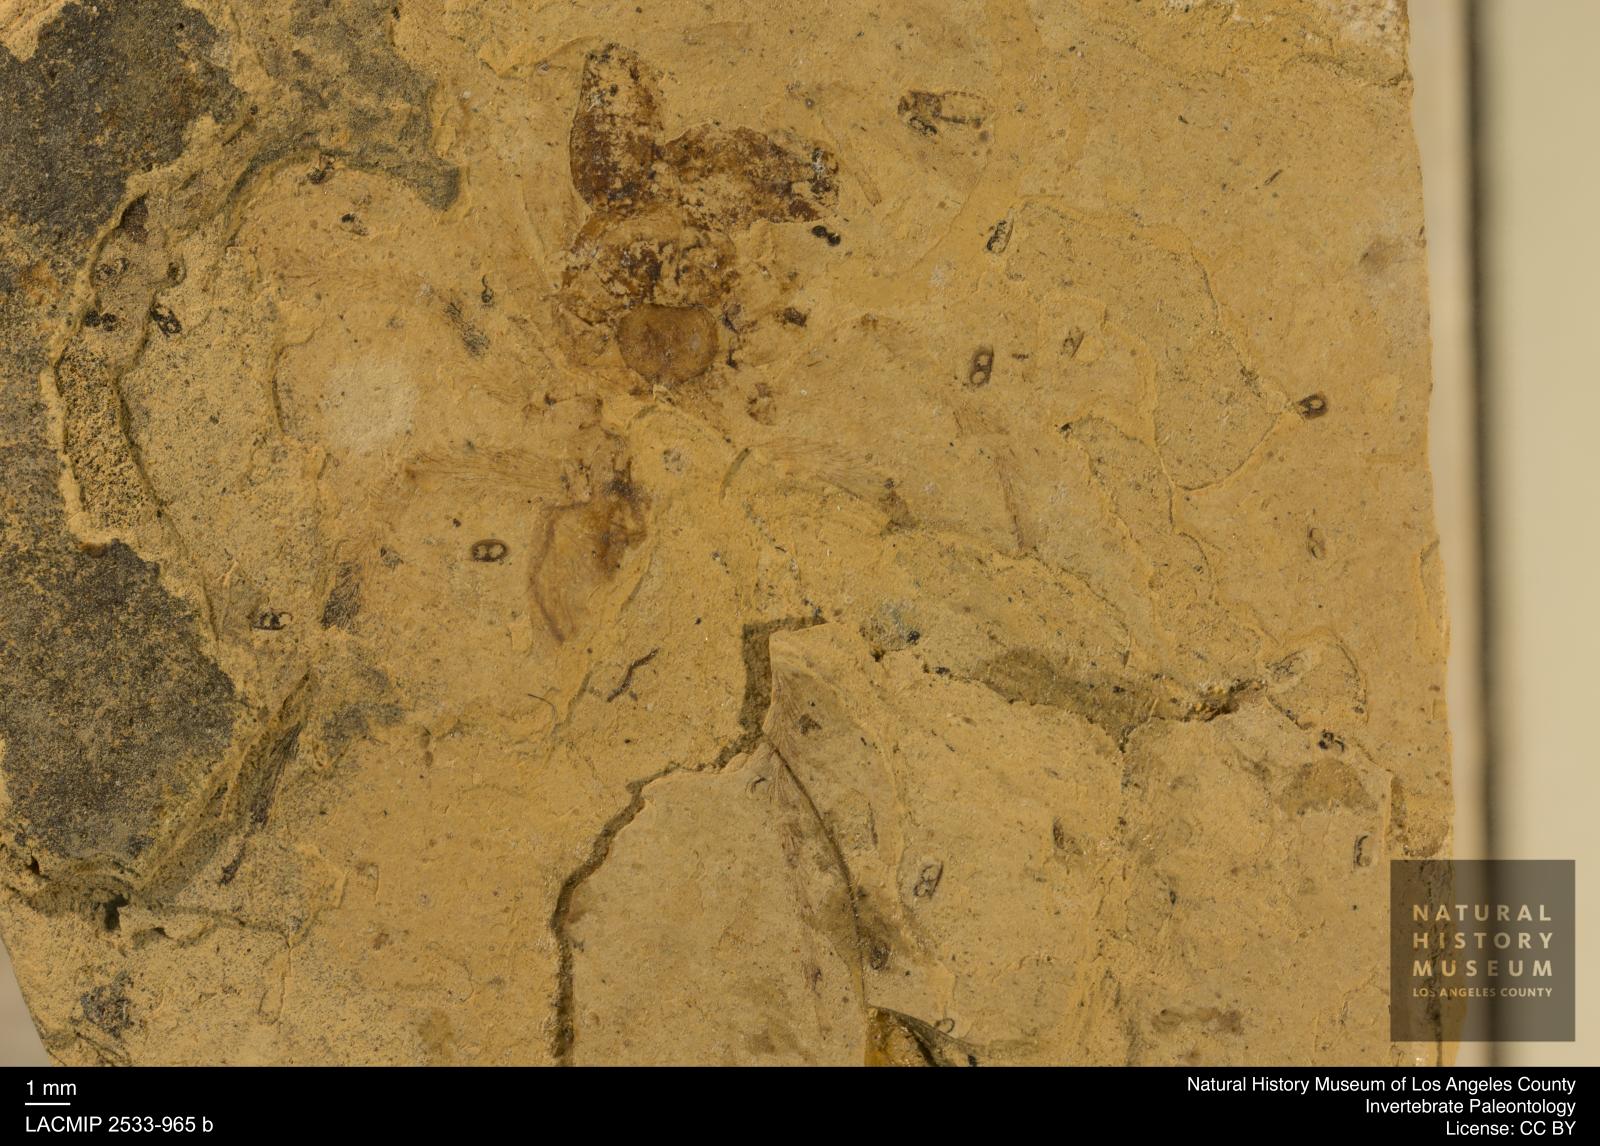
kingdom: Animalia
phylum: Arthropoda
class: Arachnida
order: Araneae
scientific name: Araneae
